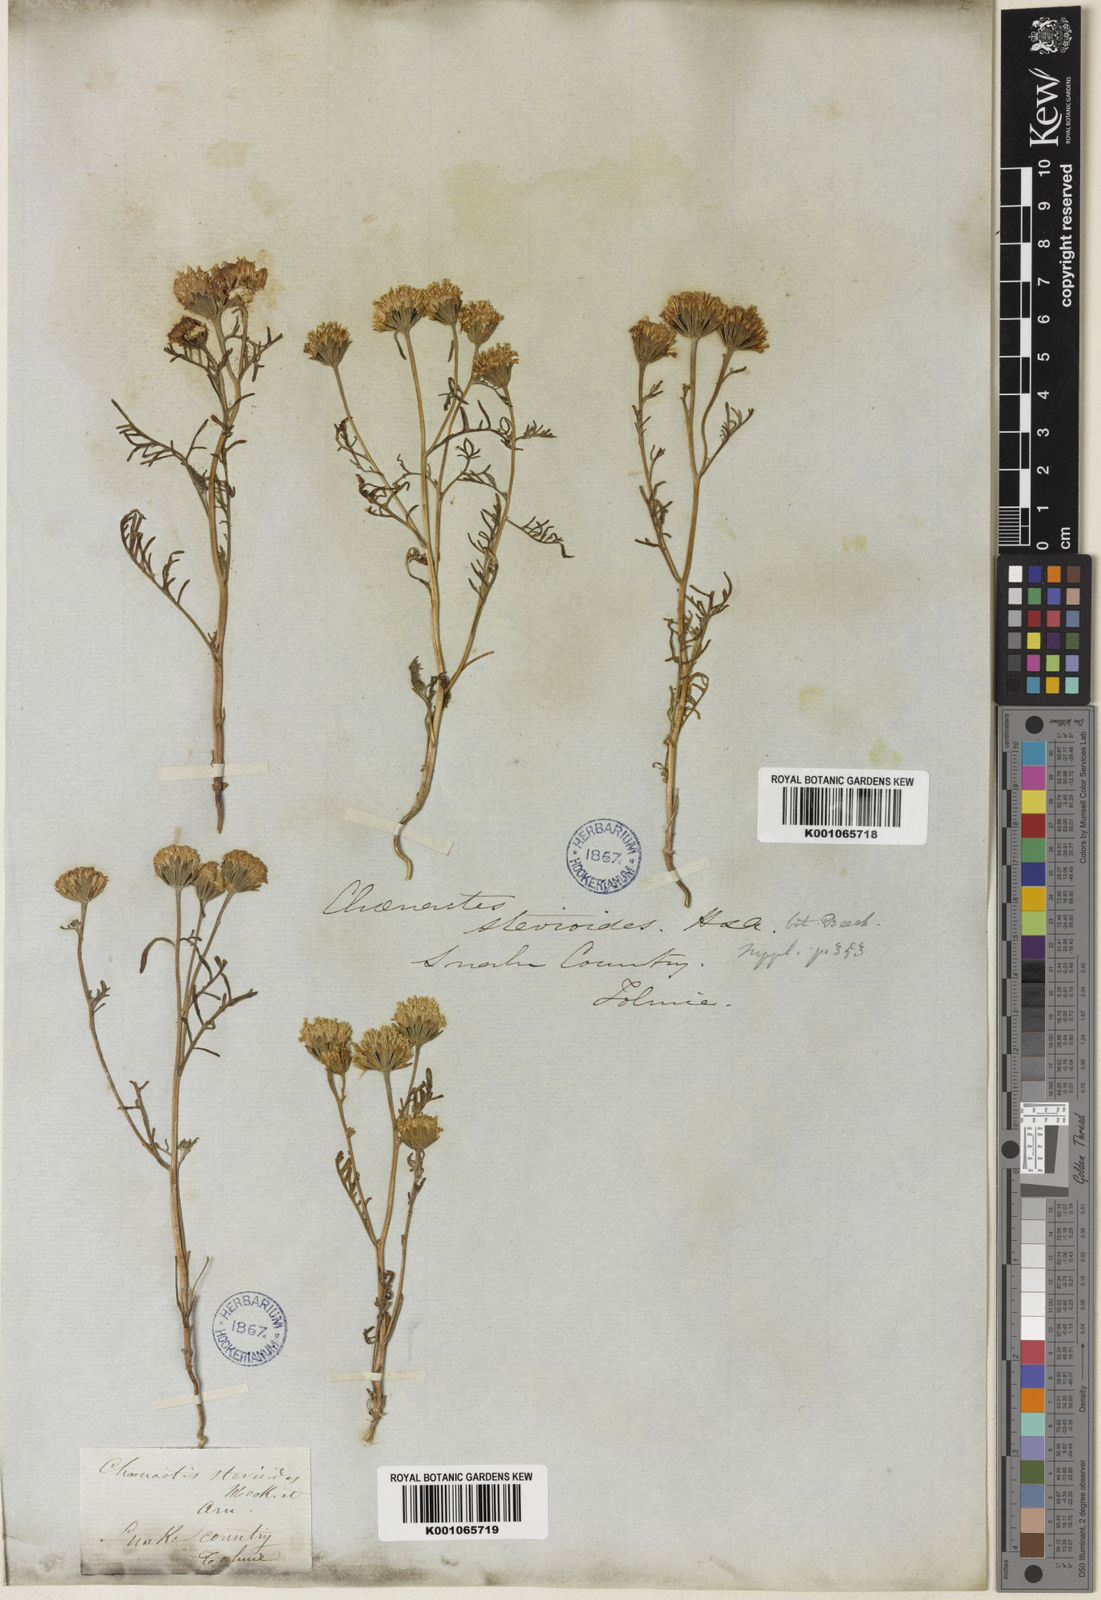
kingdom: Plantae
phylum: Tracheophyta
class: Magnoliopsida
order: Asterales
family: Asteraceae
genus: Chaenactis
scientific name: Chaenactis stevioides
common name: Desert pincushion
